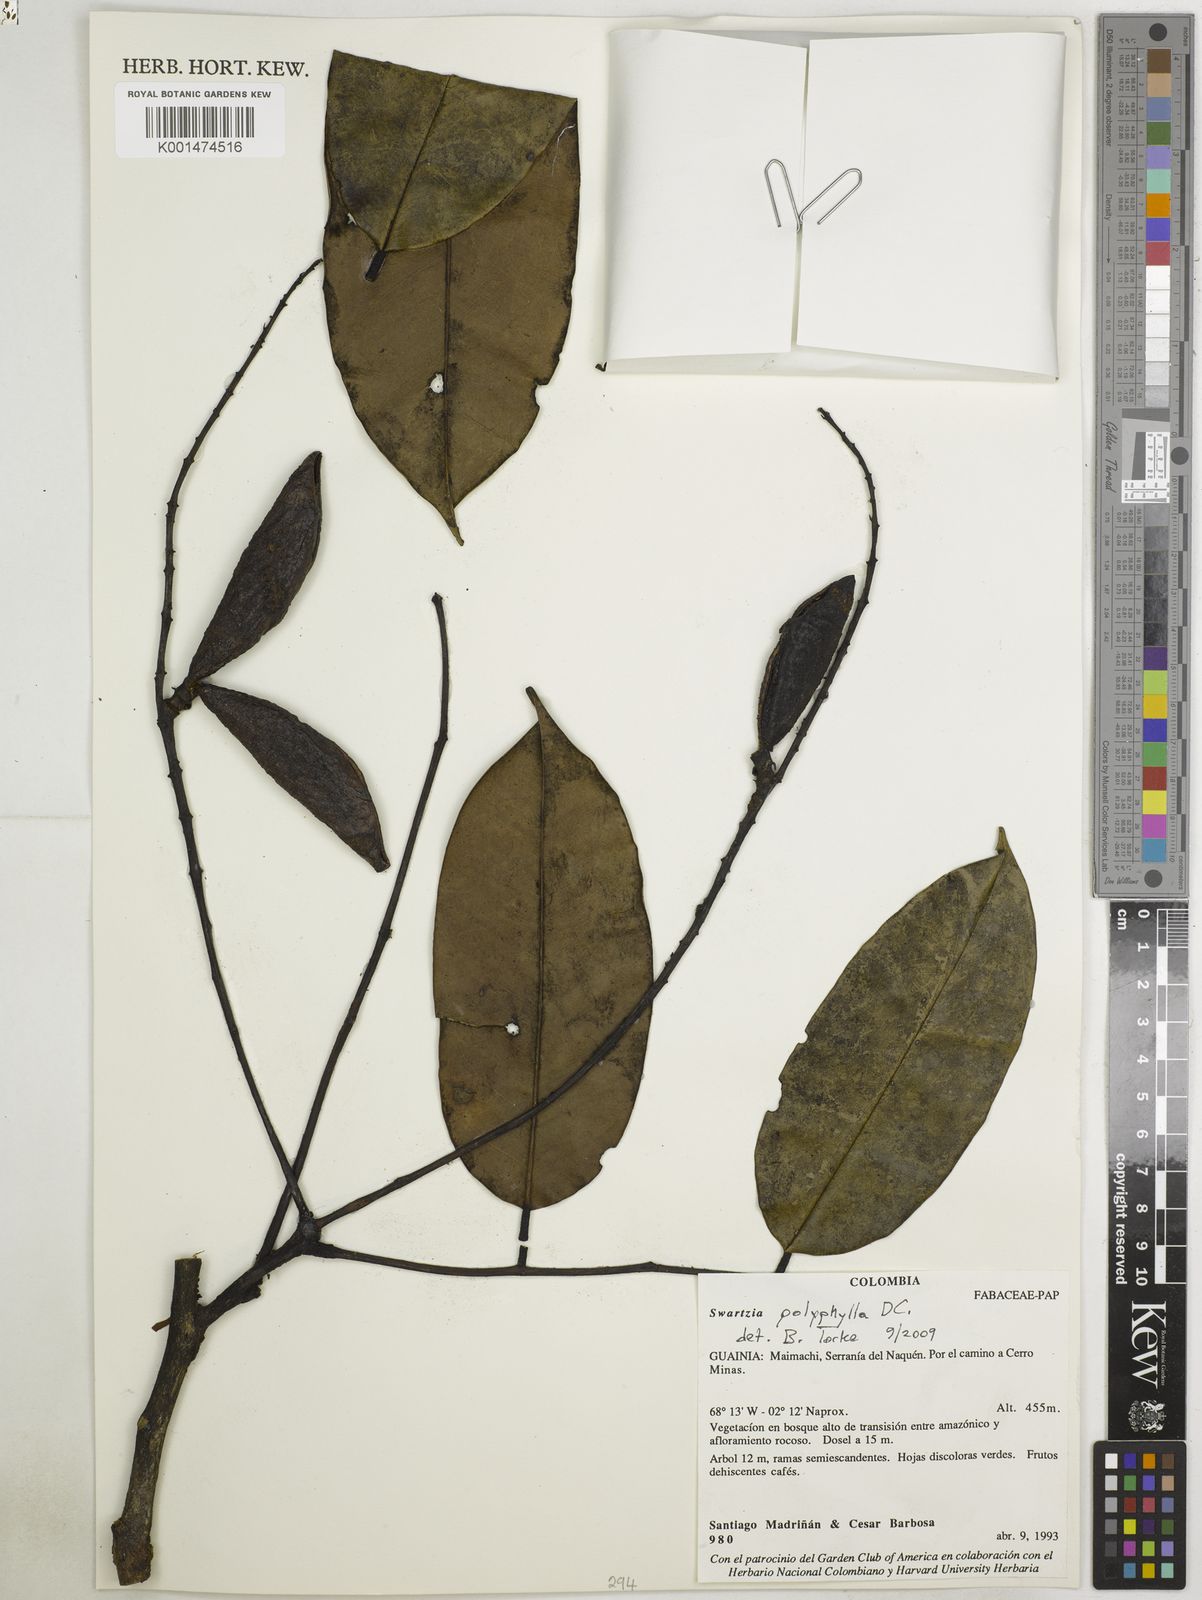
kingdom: Plantae
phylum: Tracheophyta
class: Magnoliopsida
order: Fabales
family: Fabaceae
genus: Swartzia
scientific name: Swartzia polyphylla
